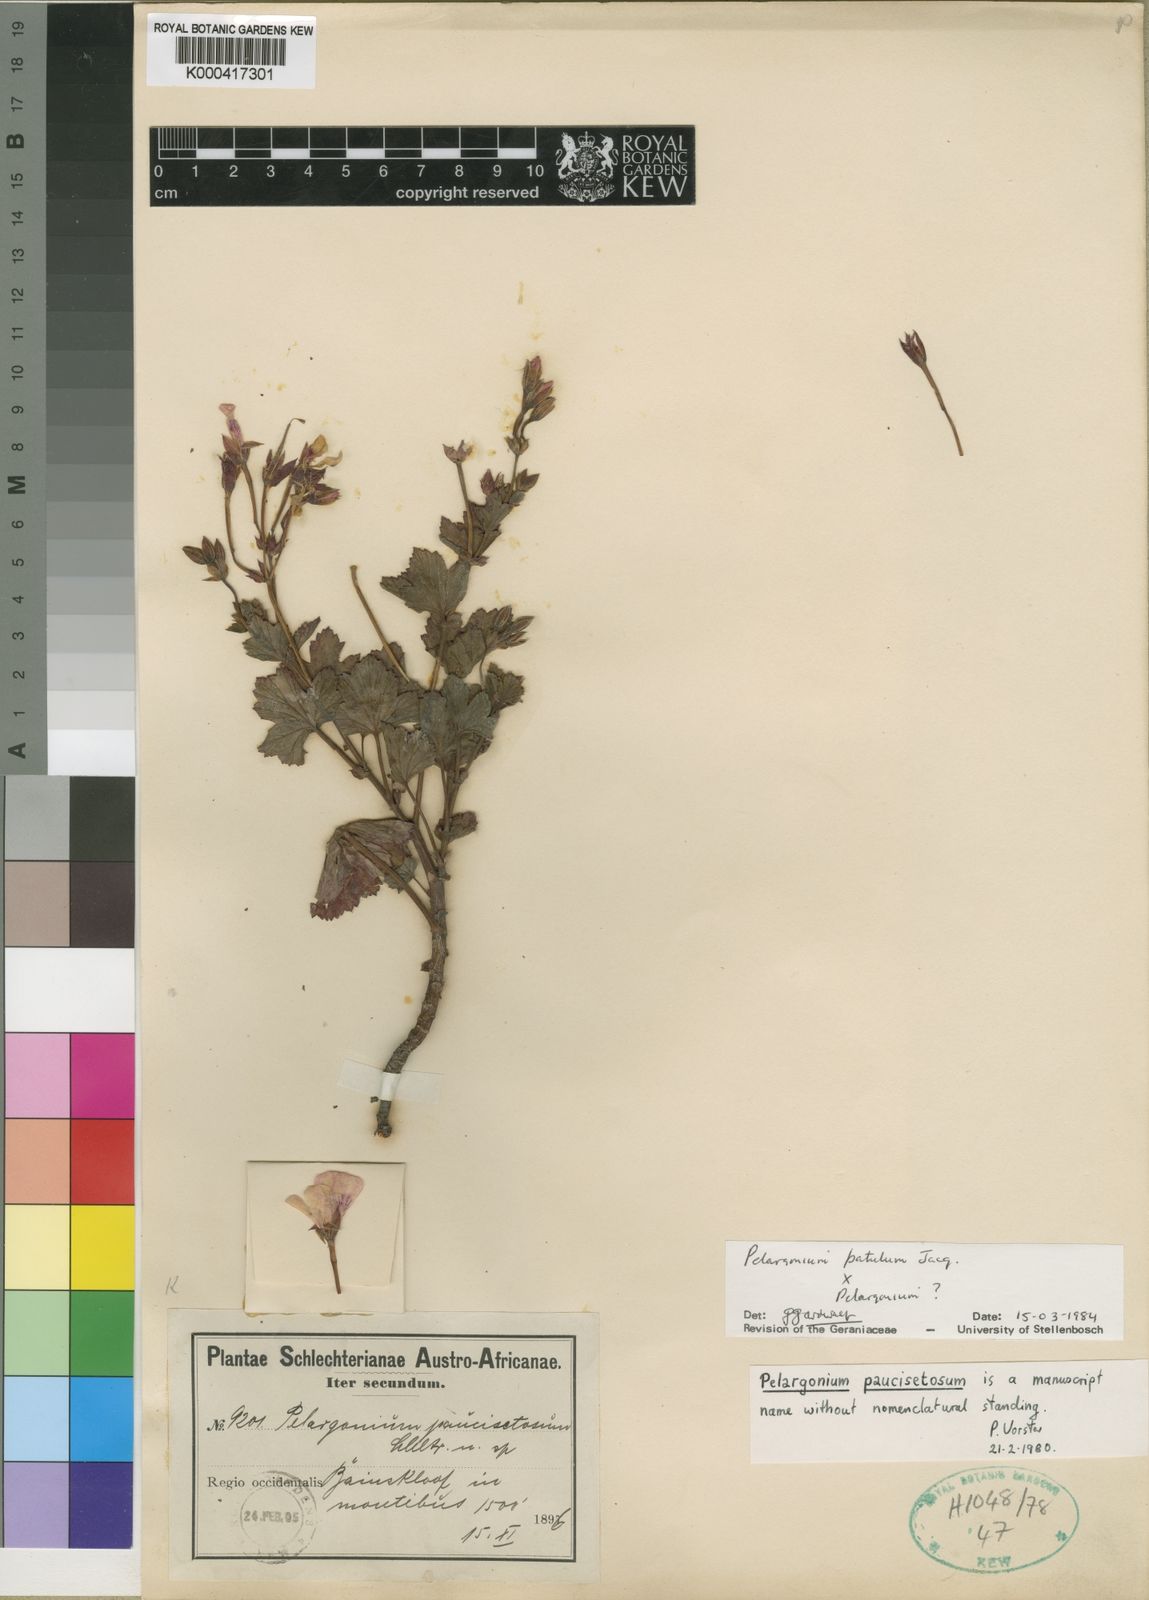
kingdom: Plantae
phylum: Tracheophyta
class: Magnoliopsida
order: Geraniales
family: Geraniaceae
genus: Pelargonium
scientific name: Pelargonium patulum
